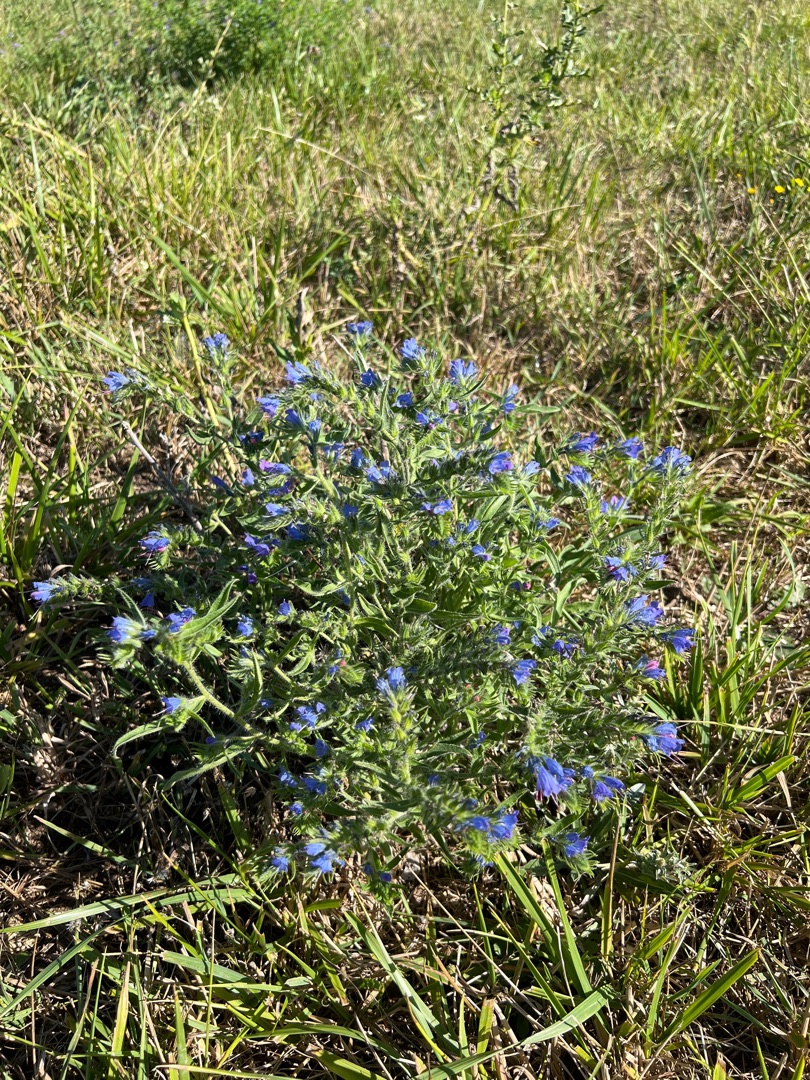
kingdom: Plantae
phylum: Tracheophyta
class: Magnoliopsida
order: Boraginales
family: Boraginaceae
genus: Echium
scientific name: Echium vulgare
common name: Slangehoved
